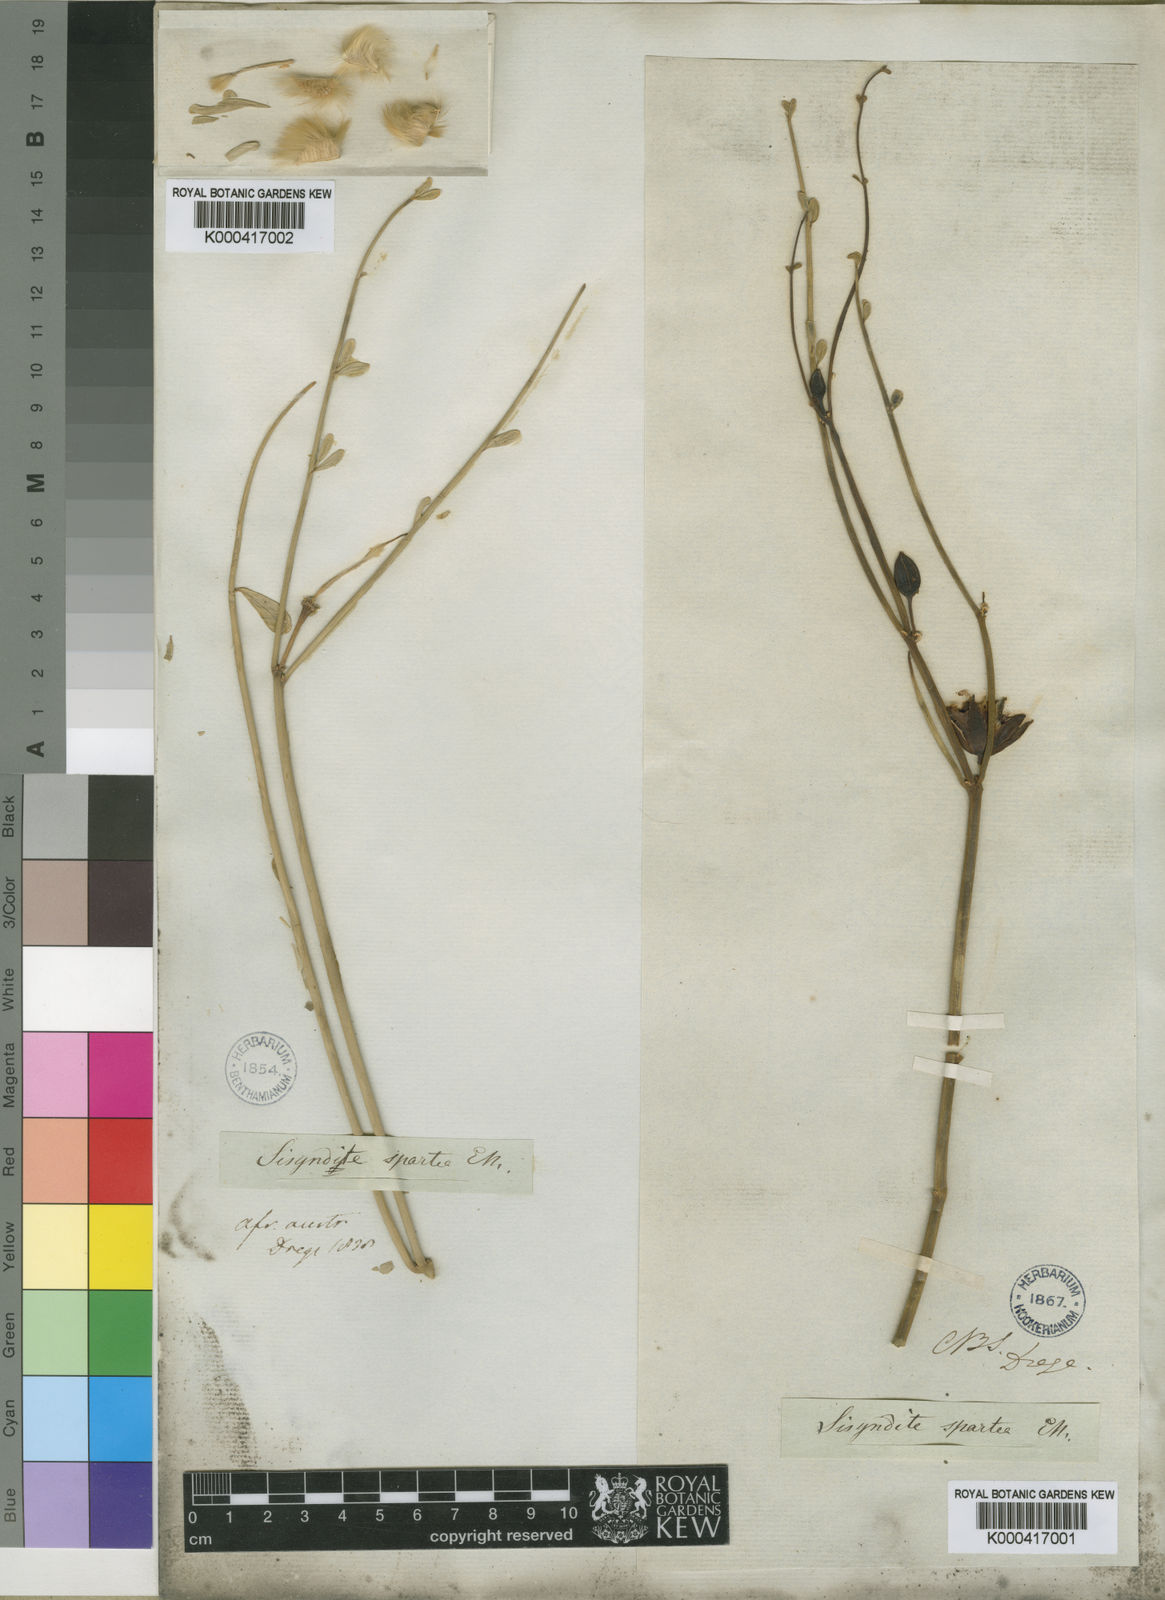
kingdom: Plantae
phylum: Tracheophyta
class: Magnoliopsida
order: Zygophyllales
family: Zygophyllaceae
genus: Sisyndite
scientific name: Sisyndite
